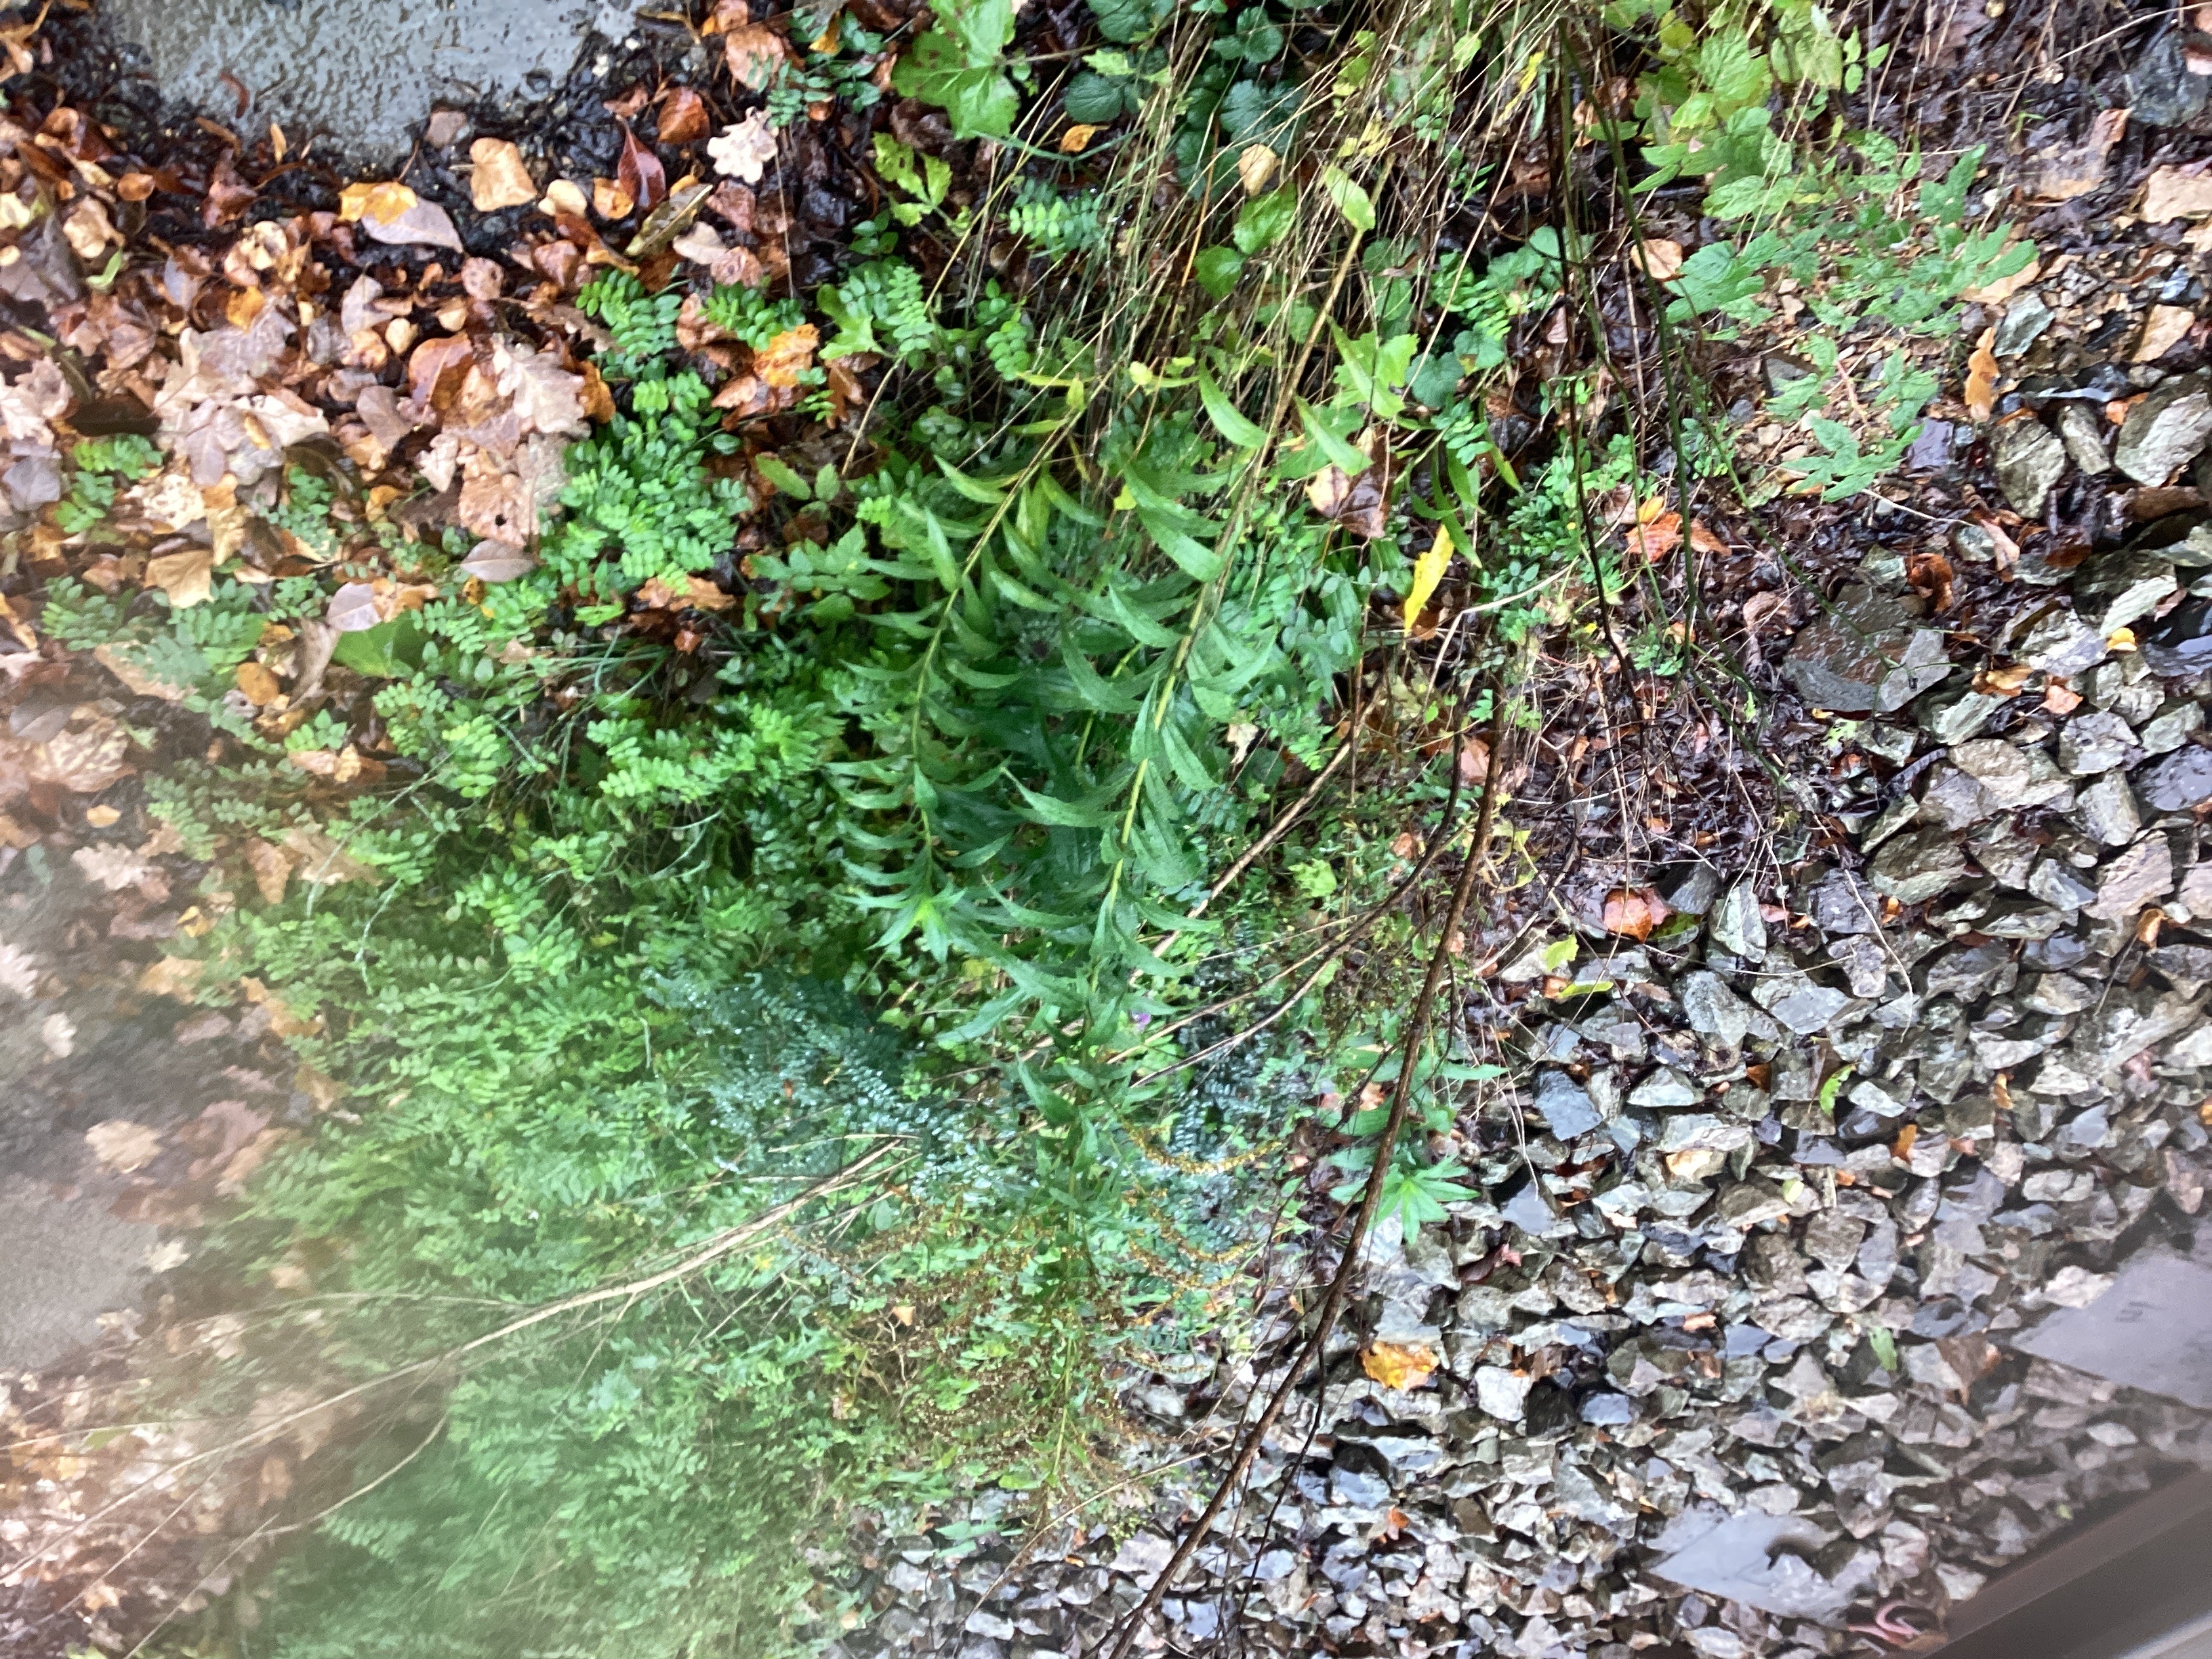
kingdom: Plantae
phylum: Tracheophyta
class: Magnoliopsida
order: Asterales
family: Asteraceae
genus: Solidago
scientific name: Solidago canadensis
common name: kanadagullris
